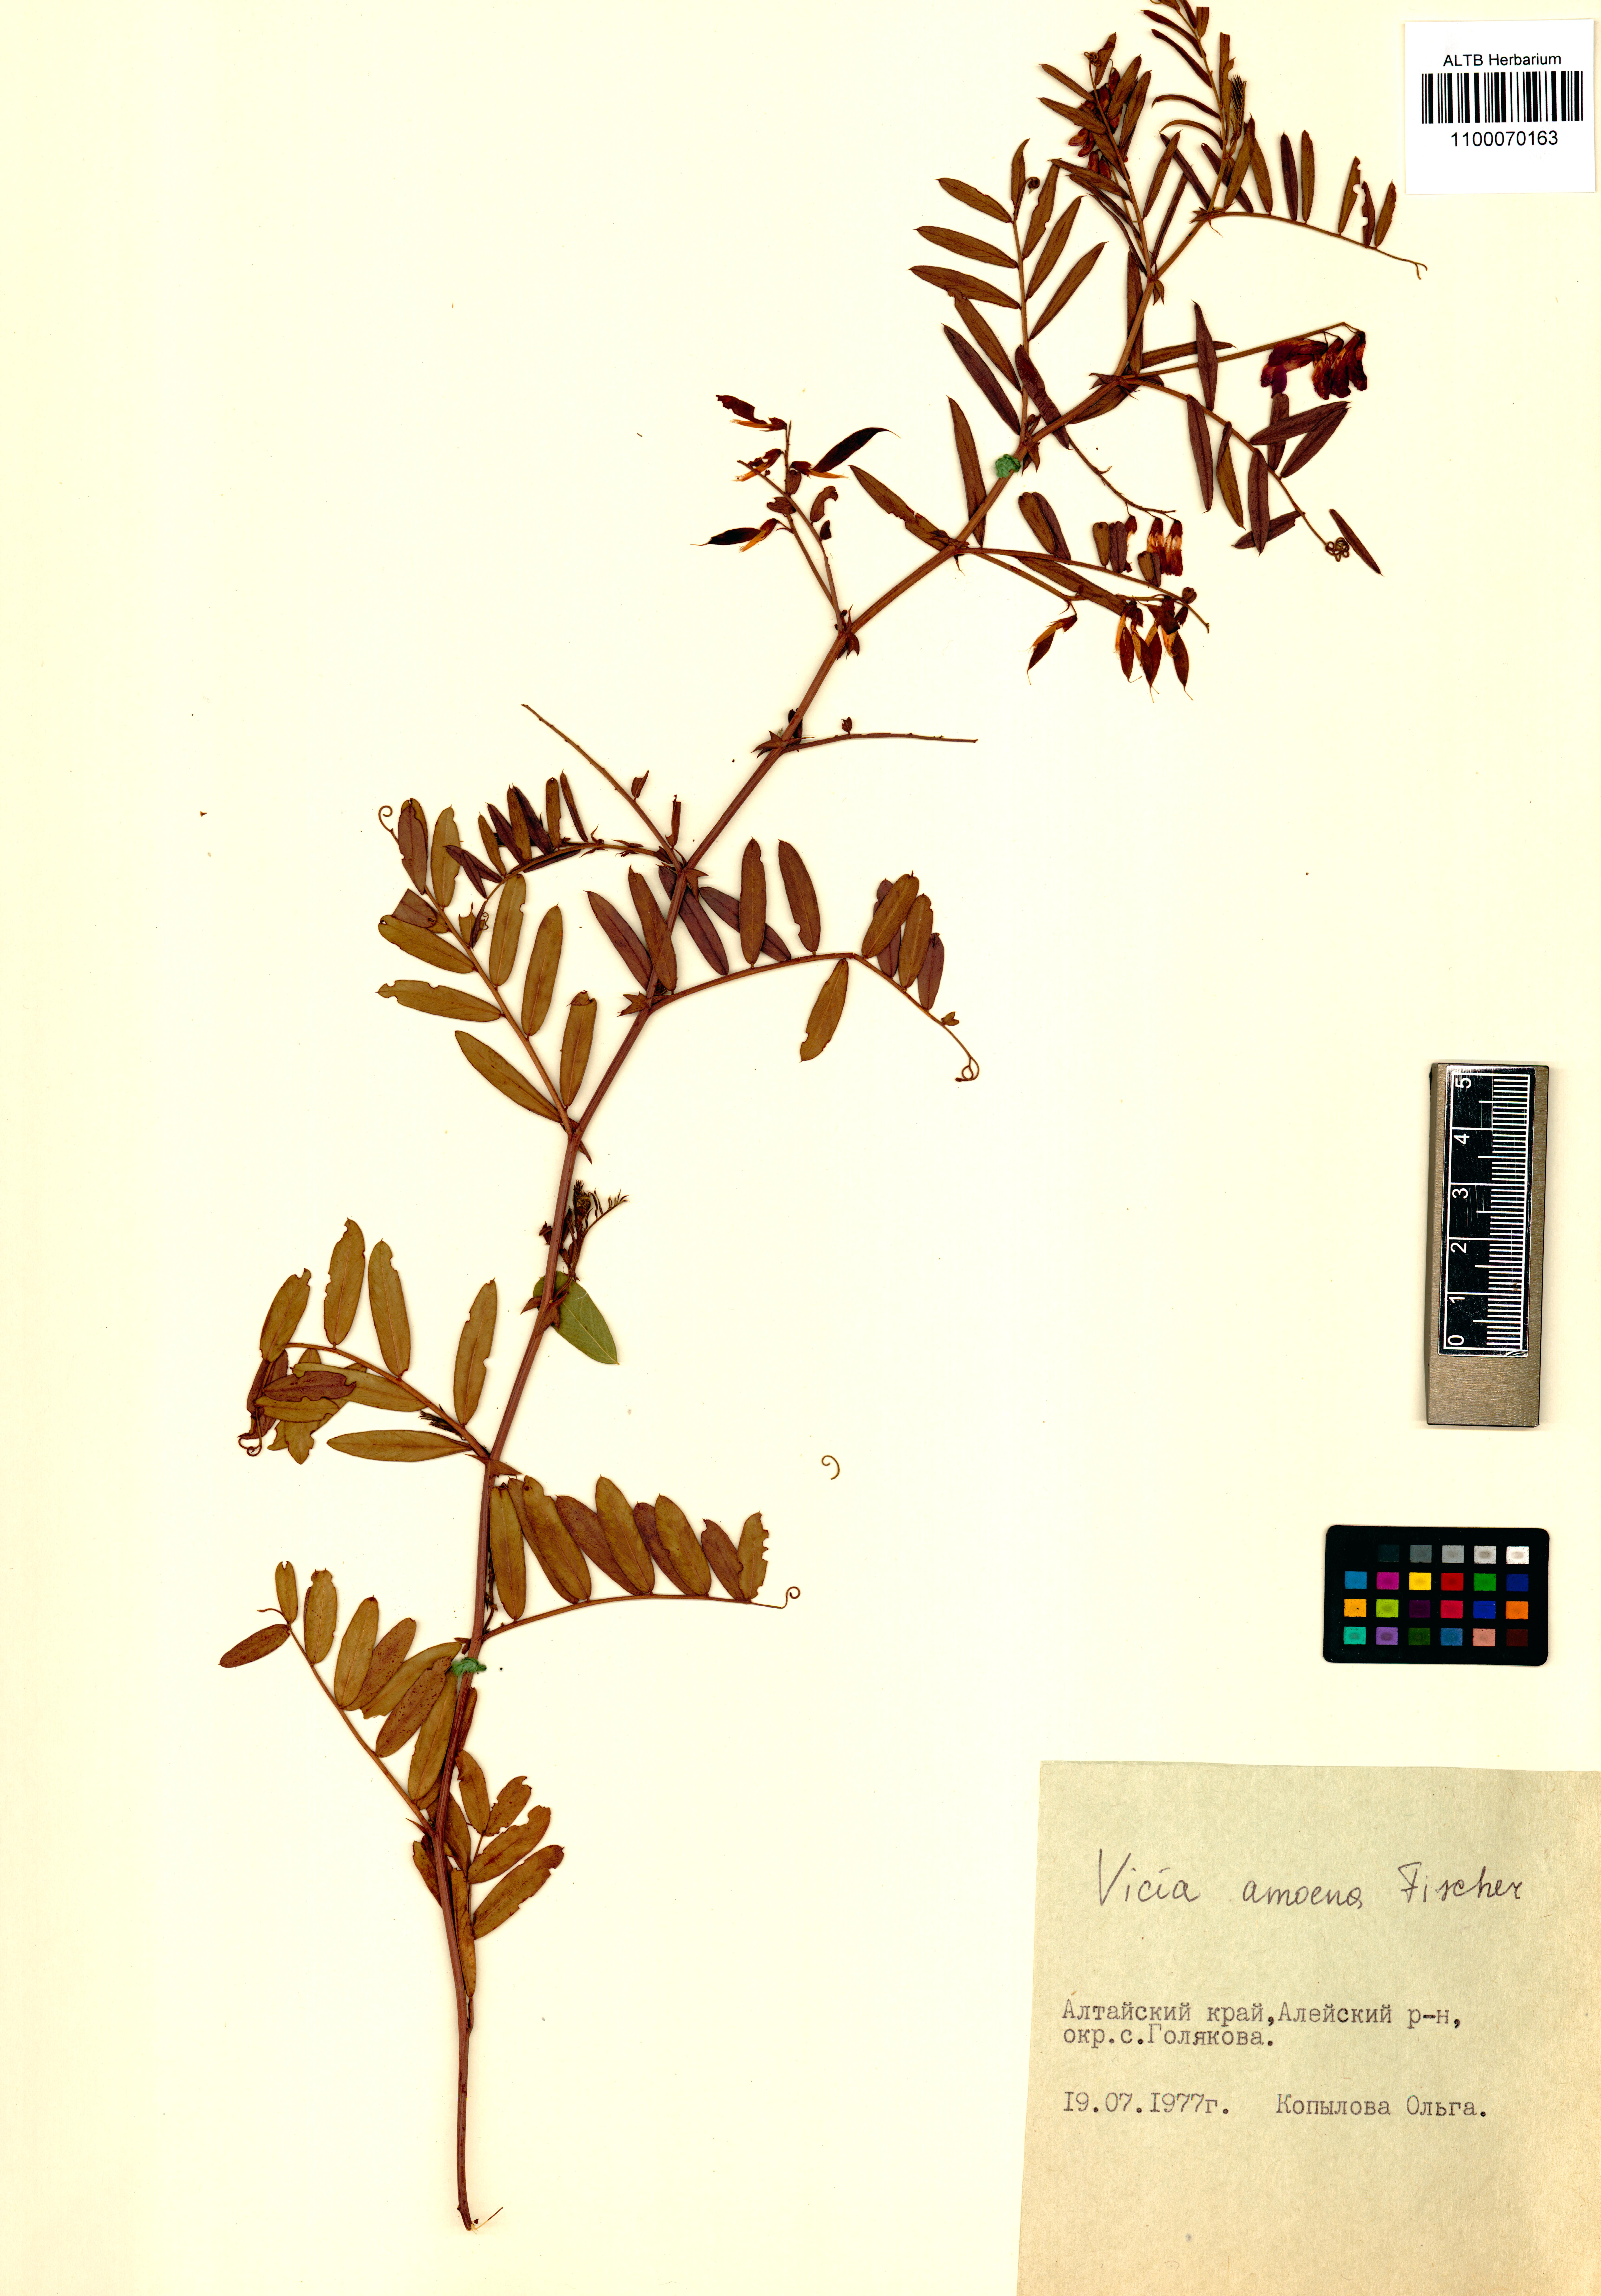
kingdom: Plantae
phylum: Tracheophyta
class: Magnoliopsida
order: Fabales
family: Fabaceae
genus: Vicia
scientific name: Vicia amoena
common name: Cheder ebs
